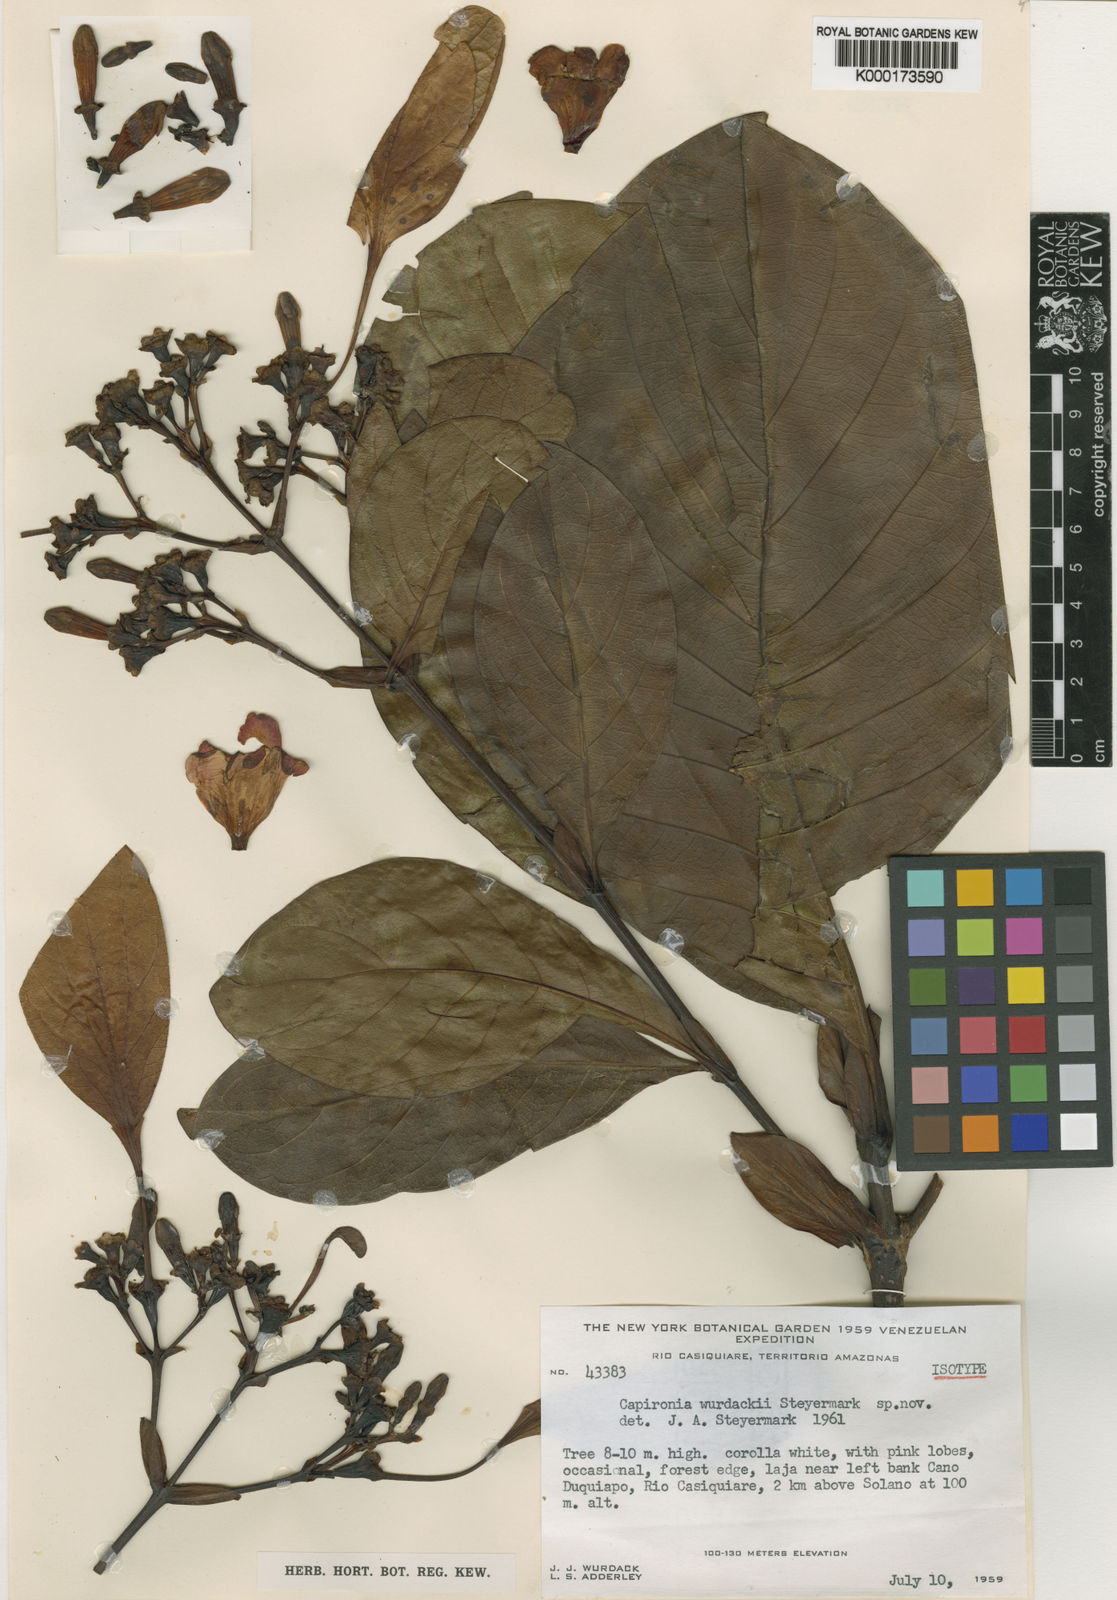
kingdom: Plantae
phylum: Tracheophyta
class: Magnoliopsida
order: Gentianales
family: Rubiaceae
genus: Capirona
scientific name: Capirona macrophylla
